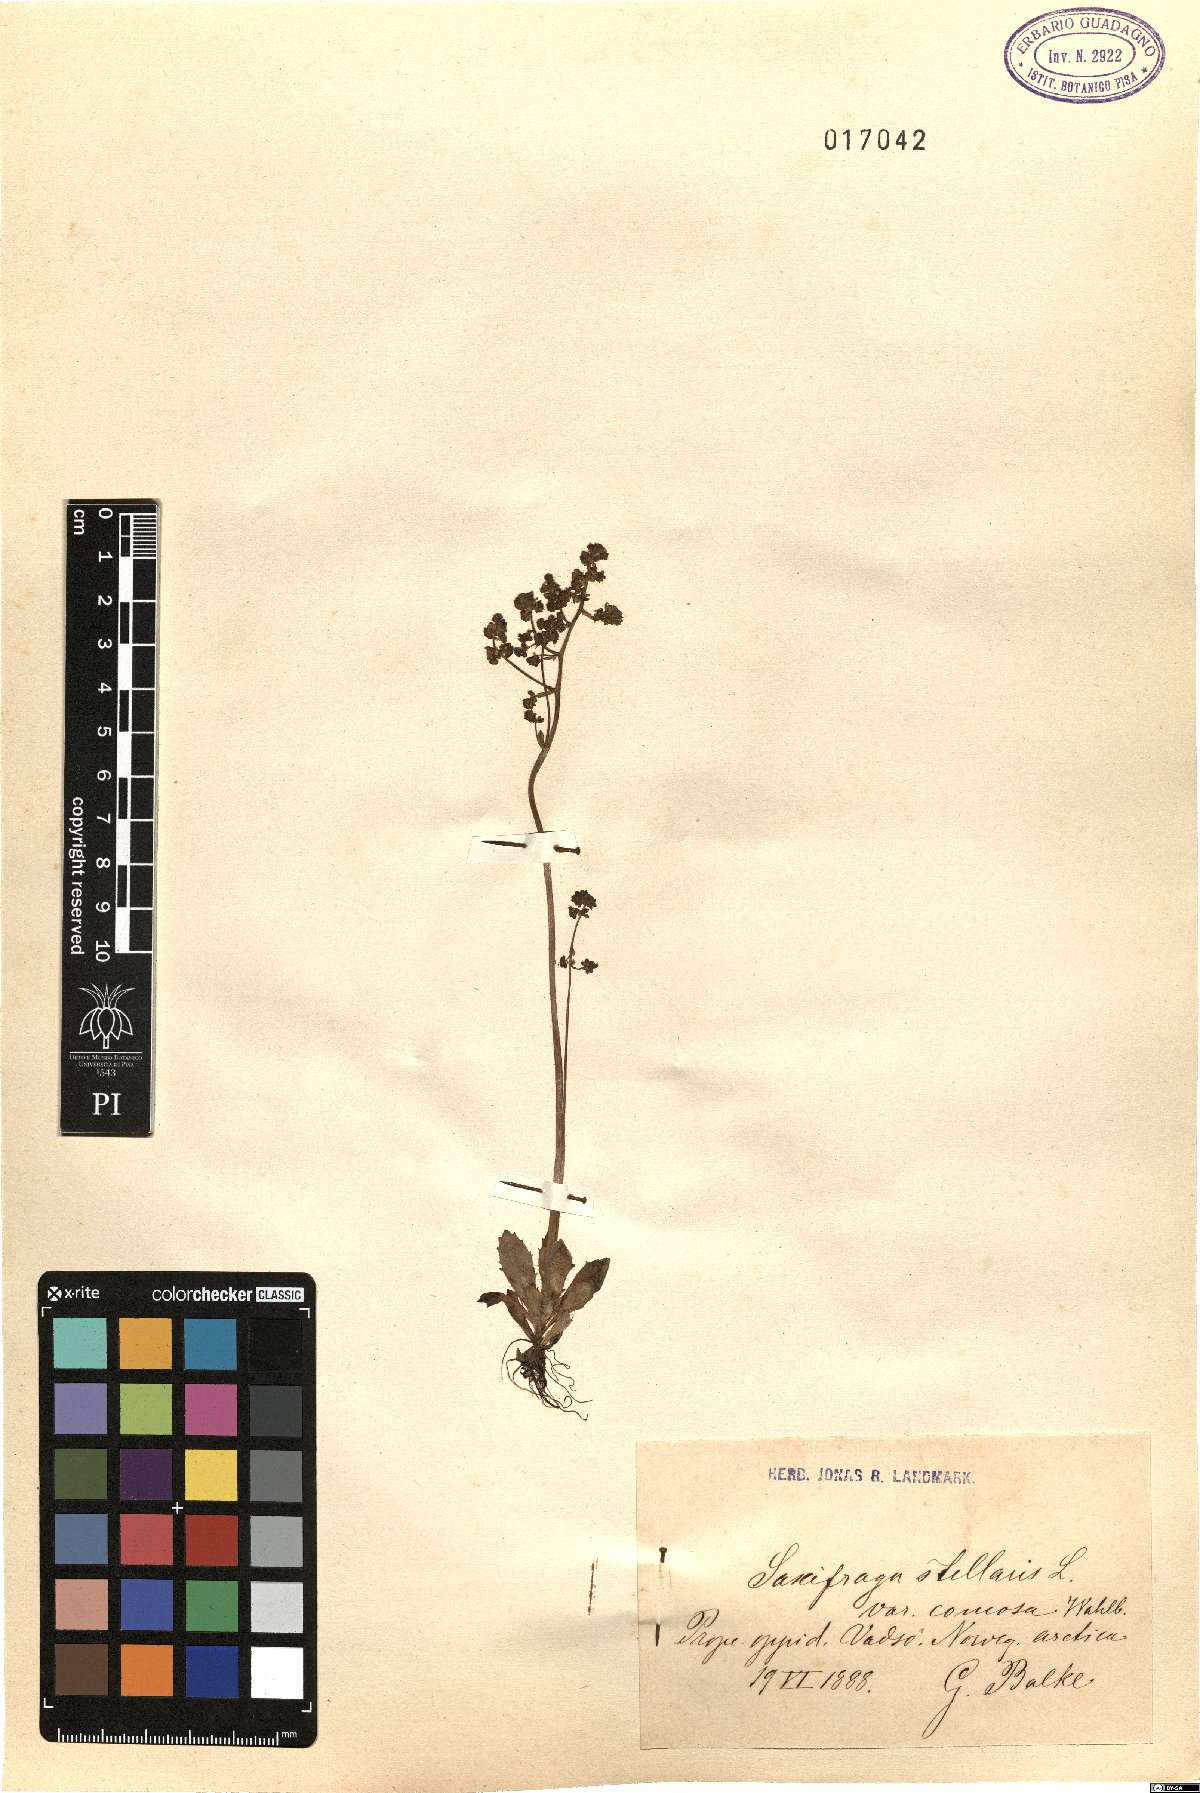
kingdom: Plantae
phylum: Tracheophyta
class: Magnoliopsida
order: Saxifragales
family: Saxifragaceae
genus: Micranthes
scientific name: Micranthes foliolosa
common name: Leafystem saxifrage
